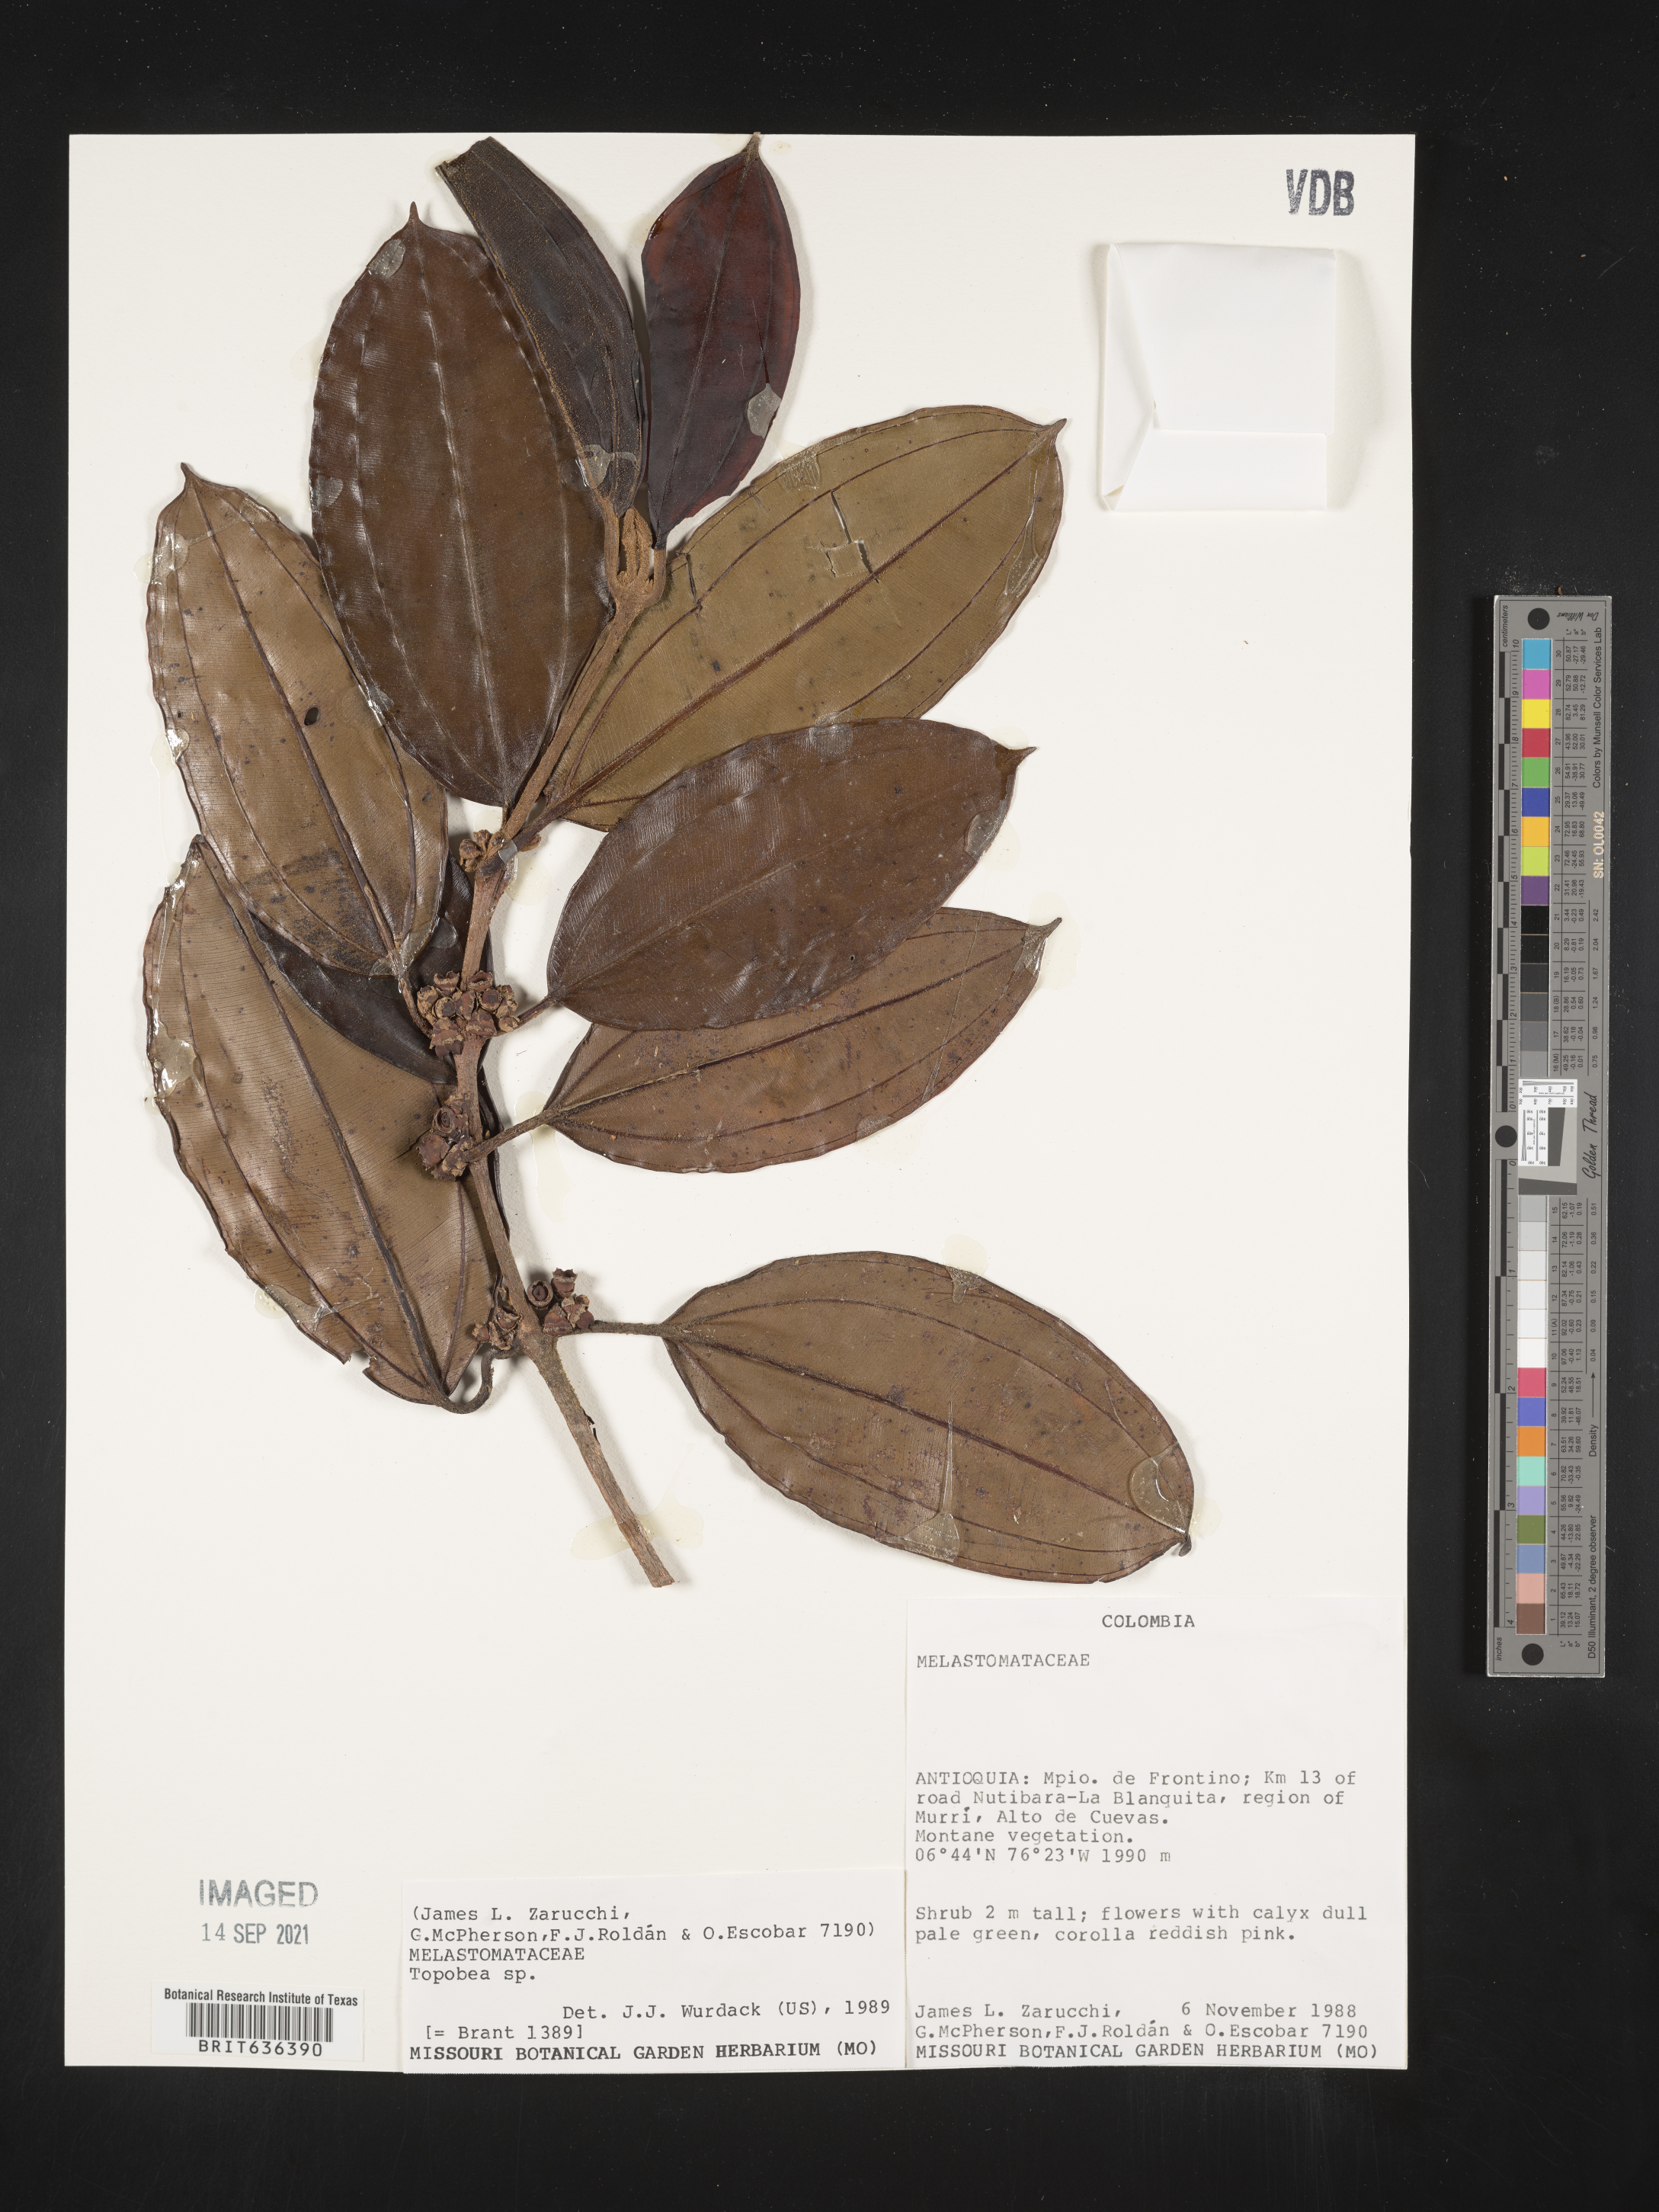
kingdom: Plantae
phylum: Tracheophyta
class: Magnoliopsida
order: Myrtales
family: Melastomataceae
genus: Blakea
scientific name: Blakea
